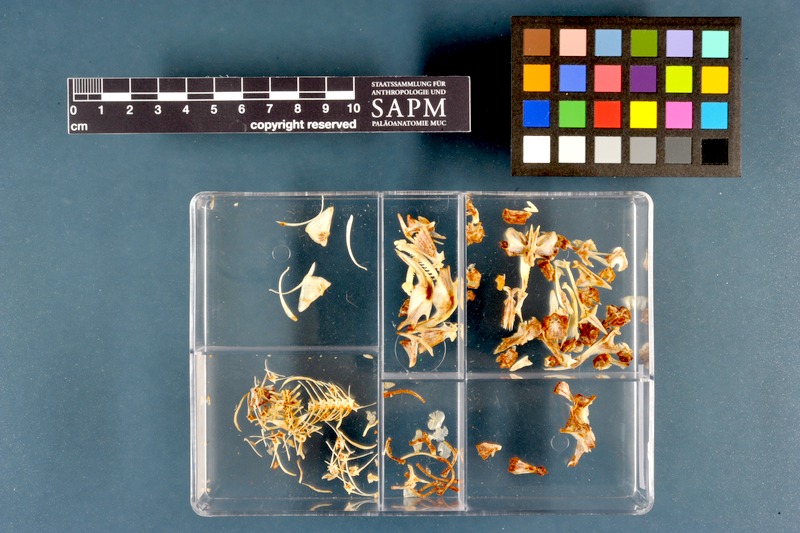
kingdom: Animalia
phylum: Chordata
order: Siluriformes
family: Claroteidae
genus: Chrysichthys
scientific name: Chrysichthys auratus
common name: Golden nile catfish
